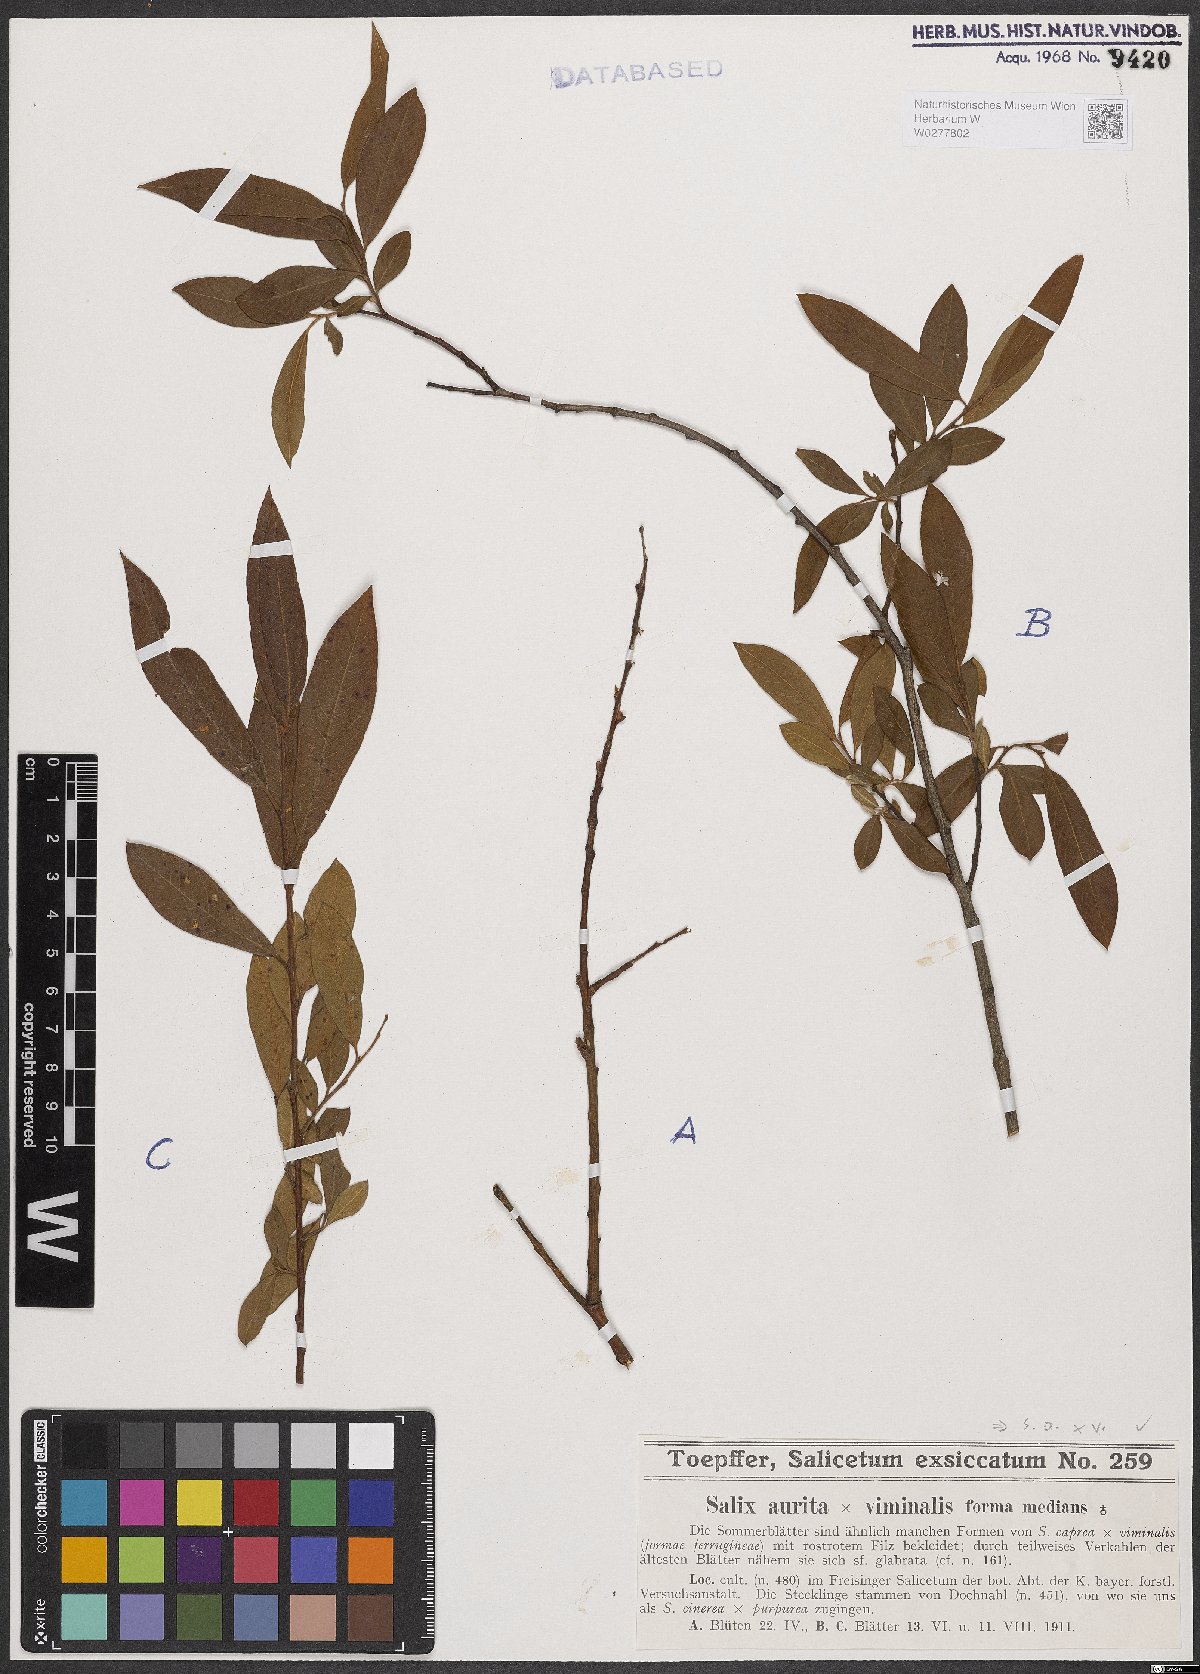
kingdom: Plantae
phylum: Tracheophyta
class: Magnoliopsida
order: Malpighiales
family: Salicaceae
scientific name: Salicaceae
